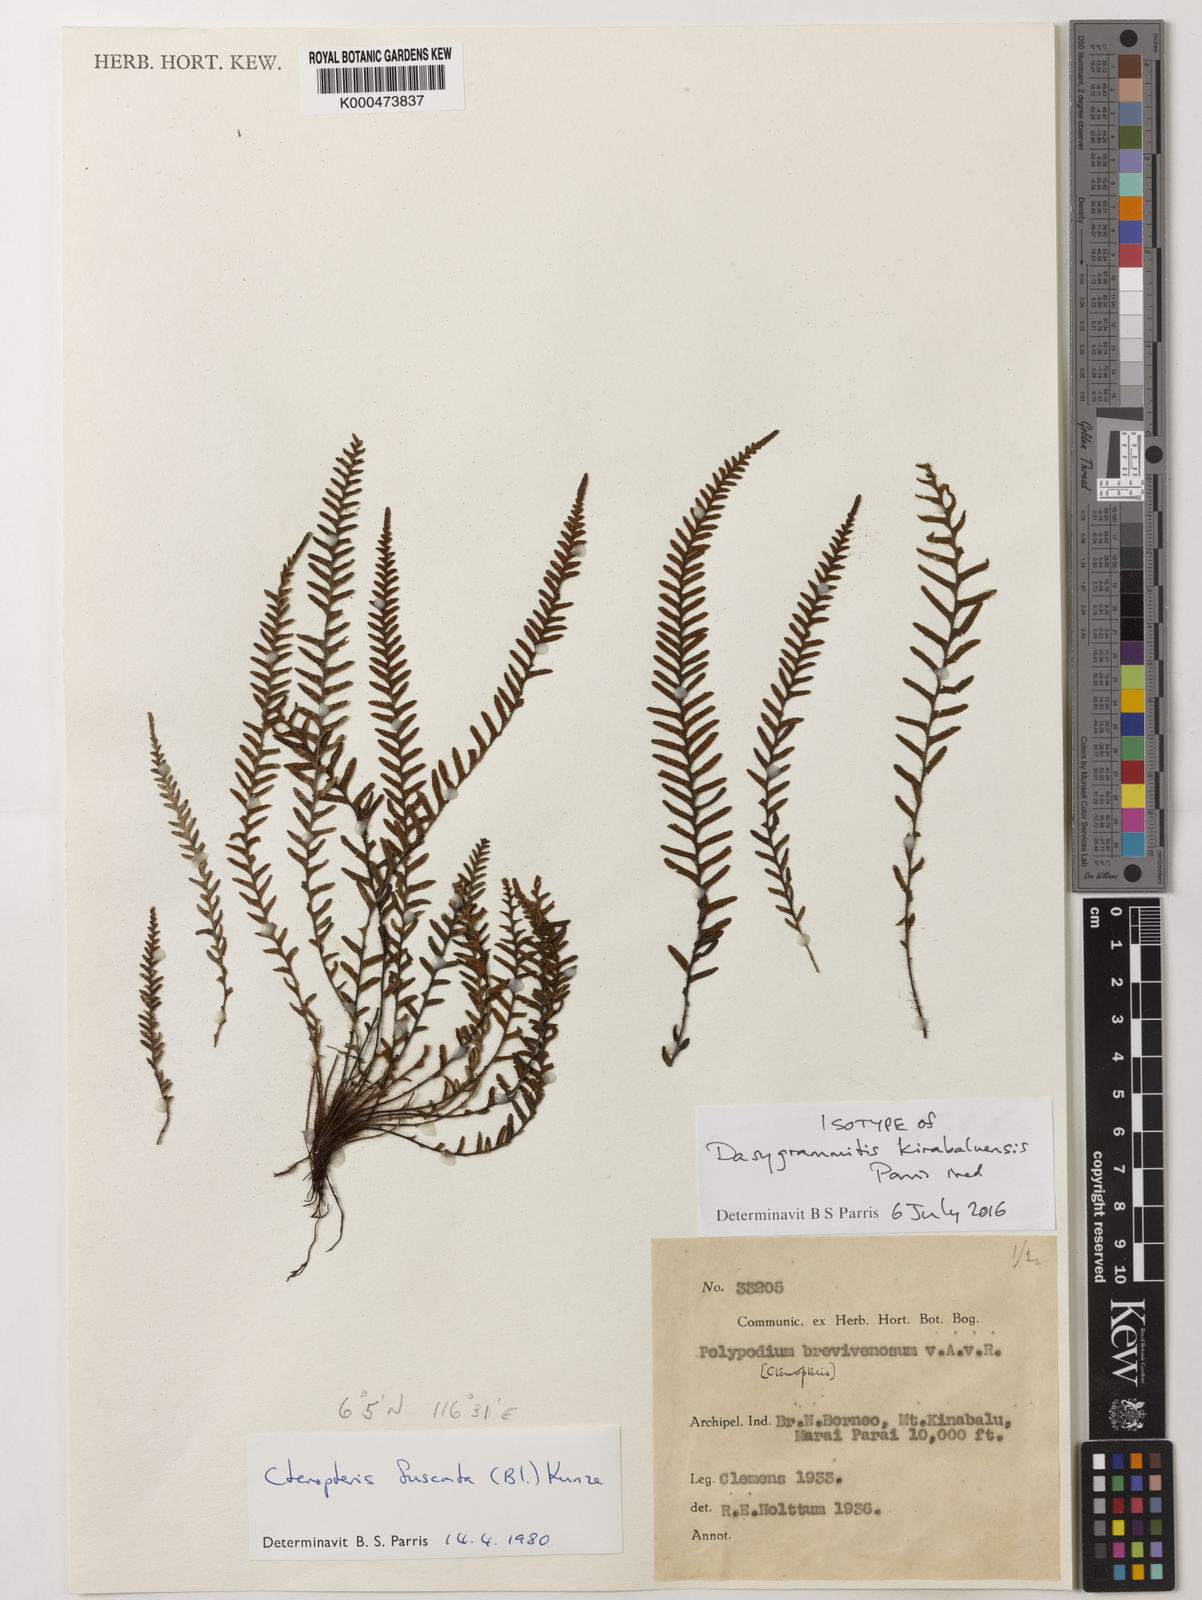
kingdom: Plantae
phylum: Tracheophyta
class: Polypodiopsida
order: Polypodiales
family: Polypodiaceae
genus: Dasygrammitis
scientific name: Dasygrammitis
